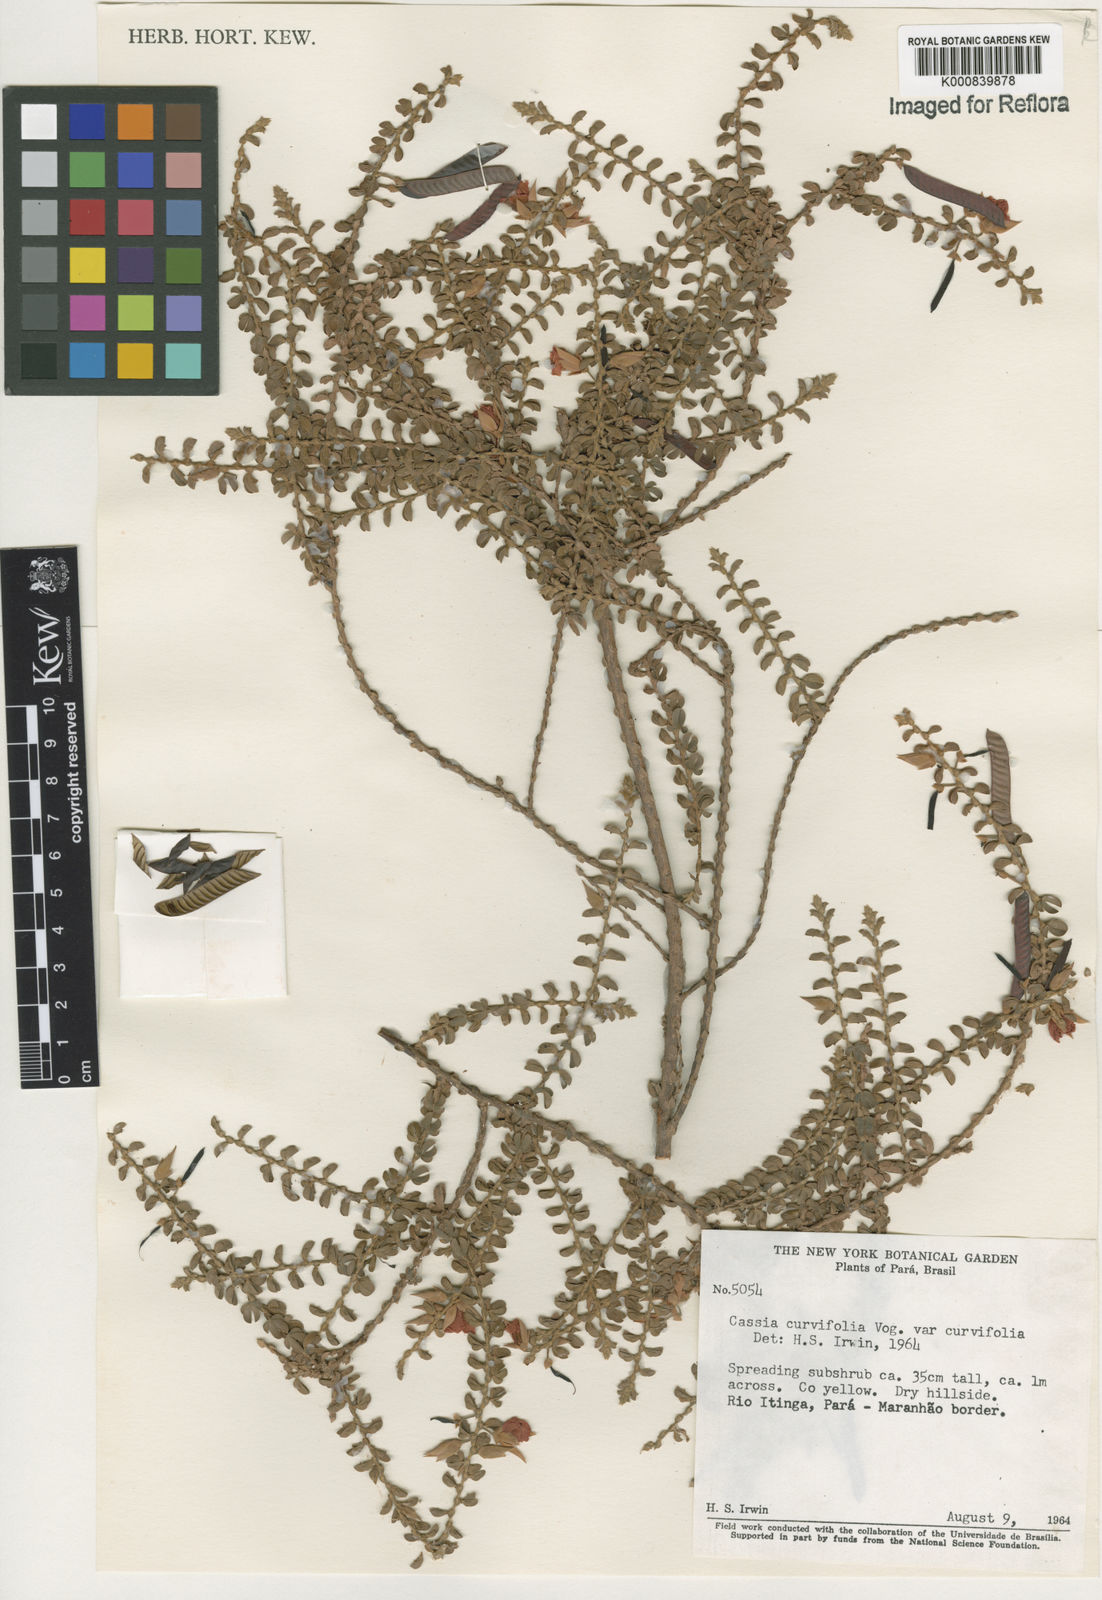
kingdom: Plantae
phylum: Tracheophyta
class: Magnoliopsida
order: Fabales
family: Fabaceae
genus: Chamaecrista
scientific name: Chamaecrista ramosa
